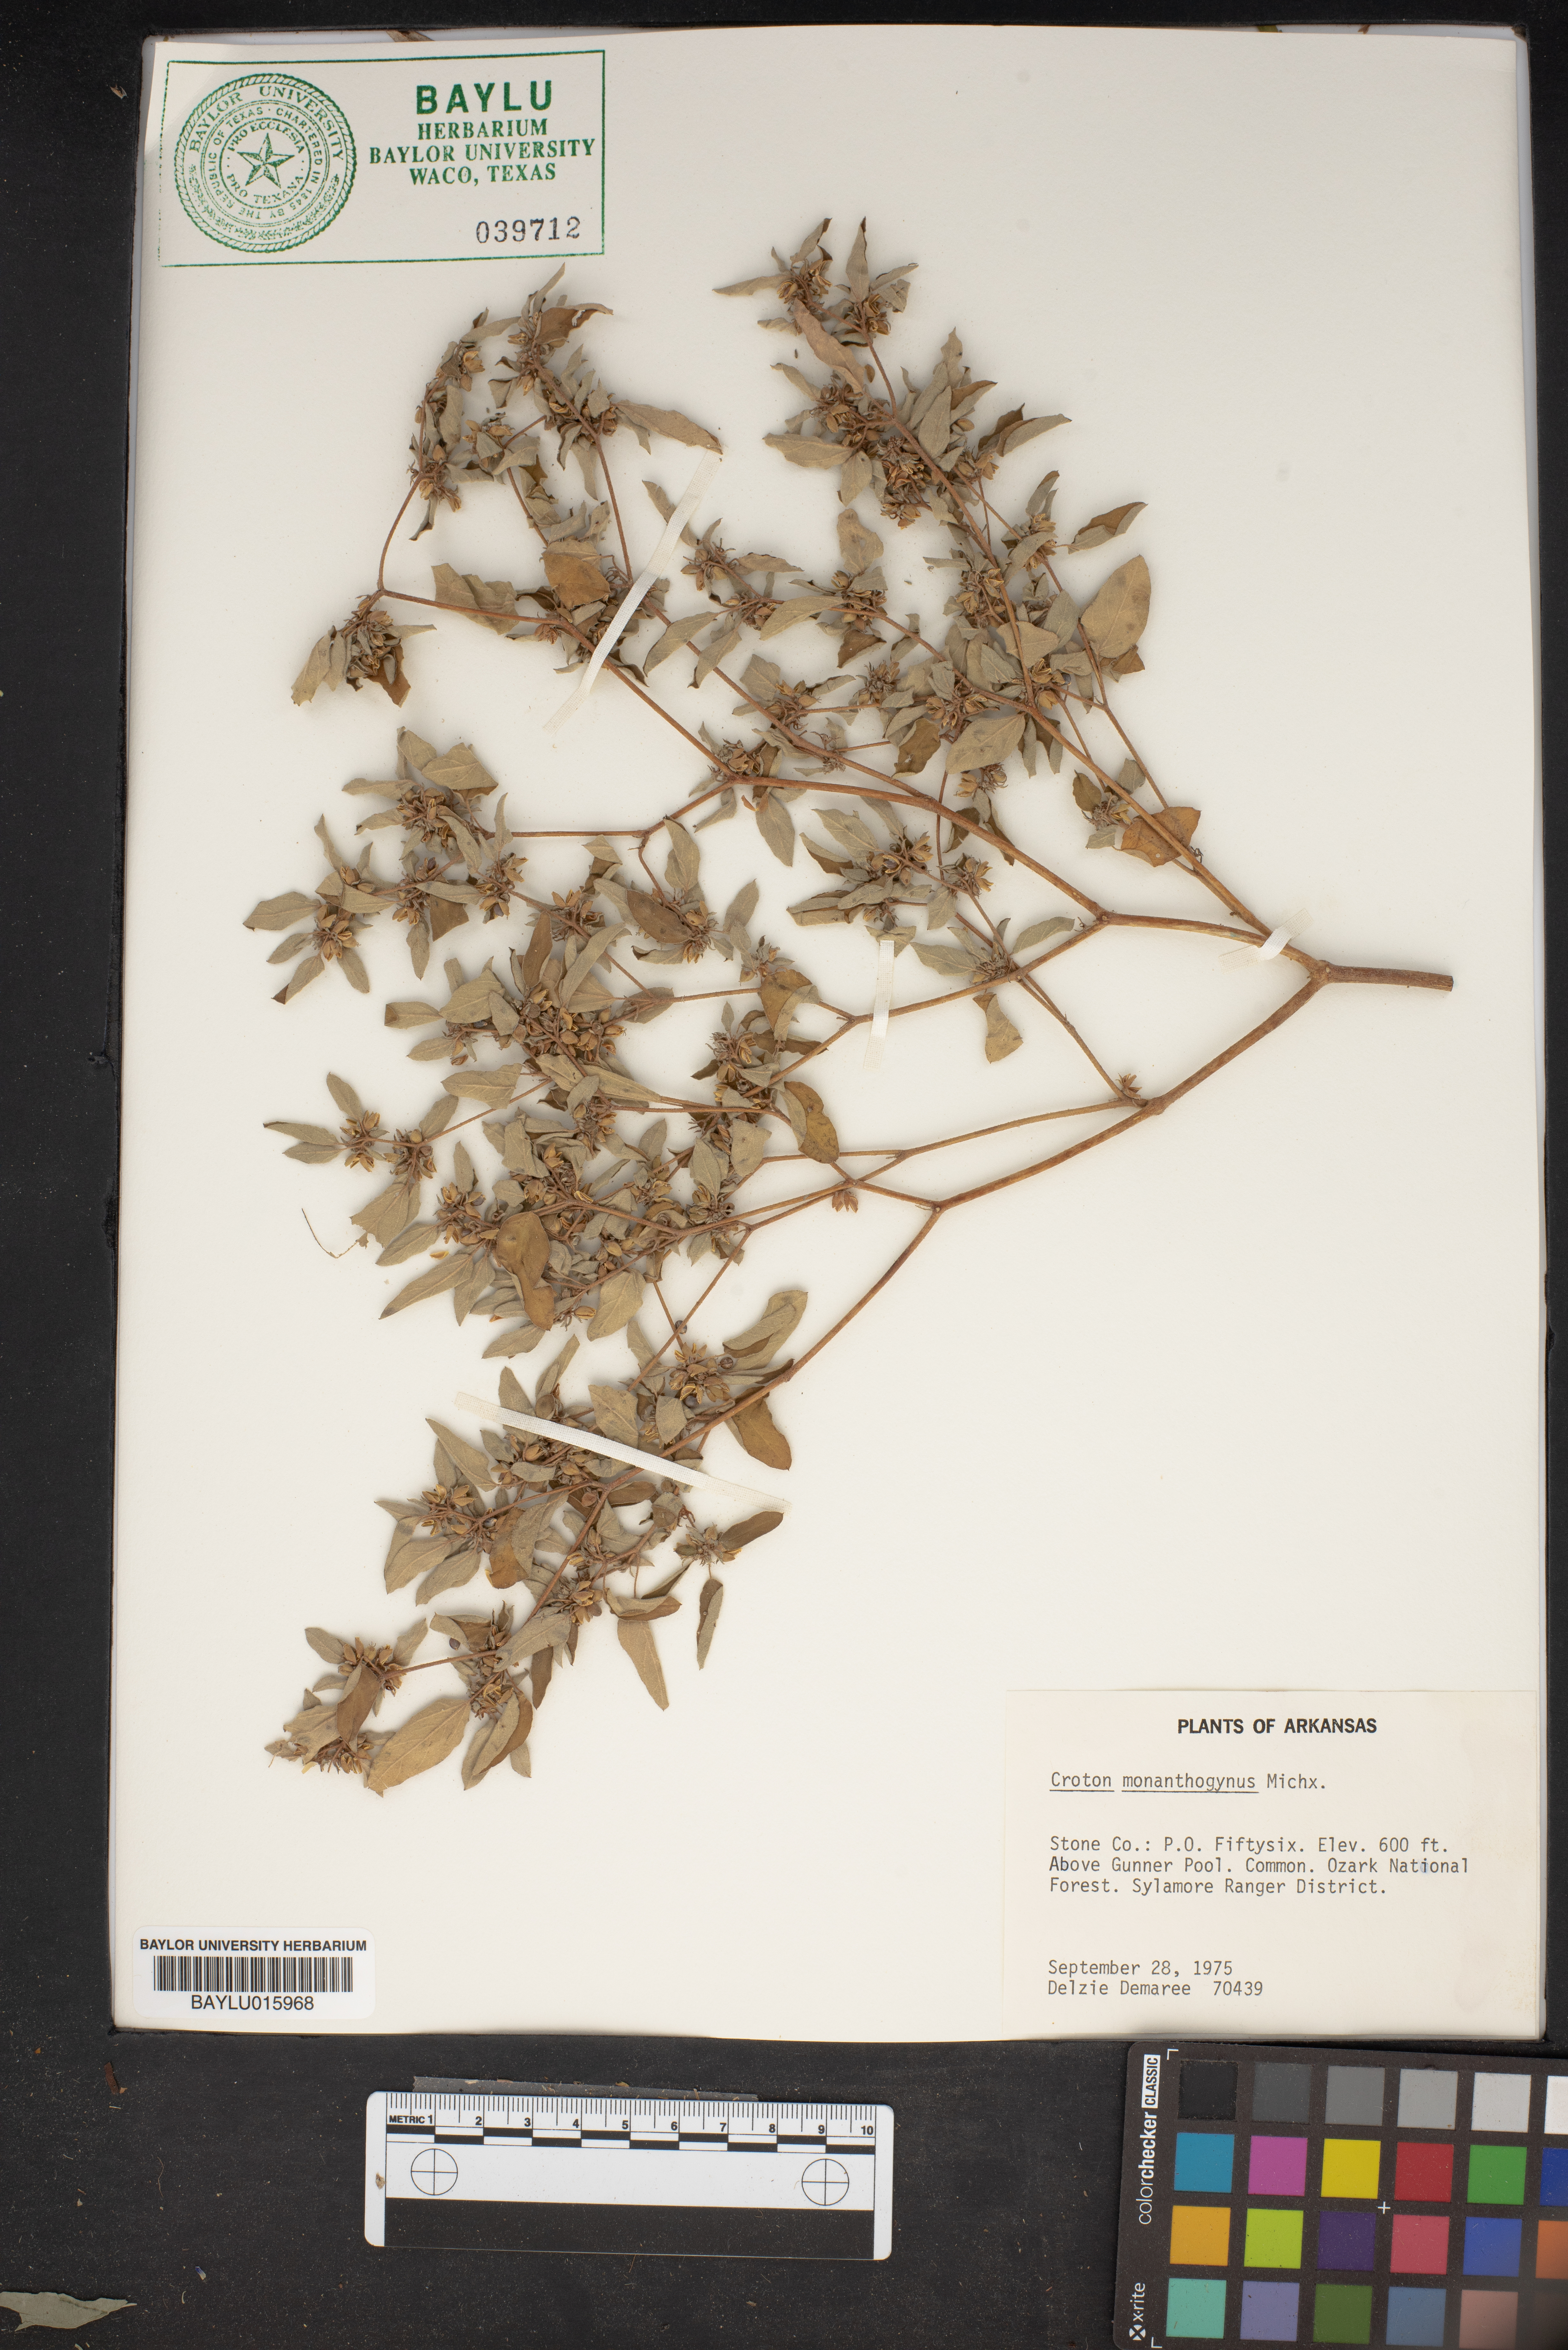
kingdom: Plantae
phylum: Tracheophyta
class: Magnoliopsida
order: Malpighiales
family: Euphorbiaceae
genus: Croton
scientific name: Croton monanthogynus
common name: One-seed croton
